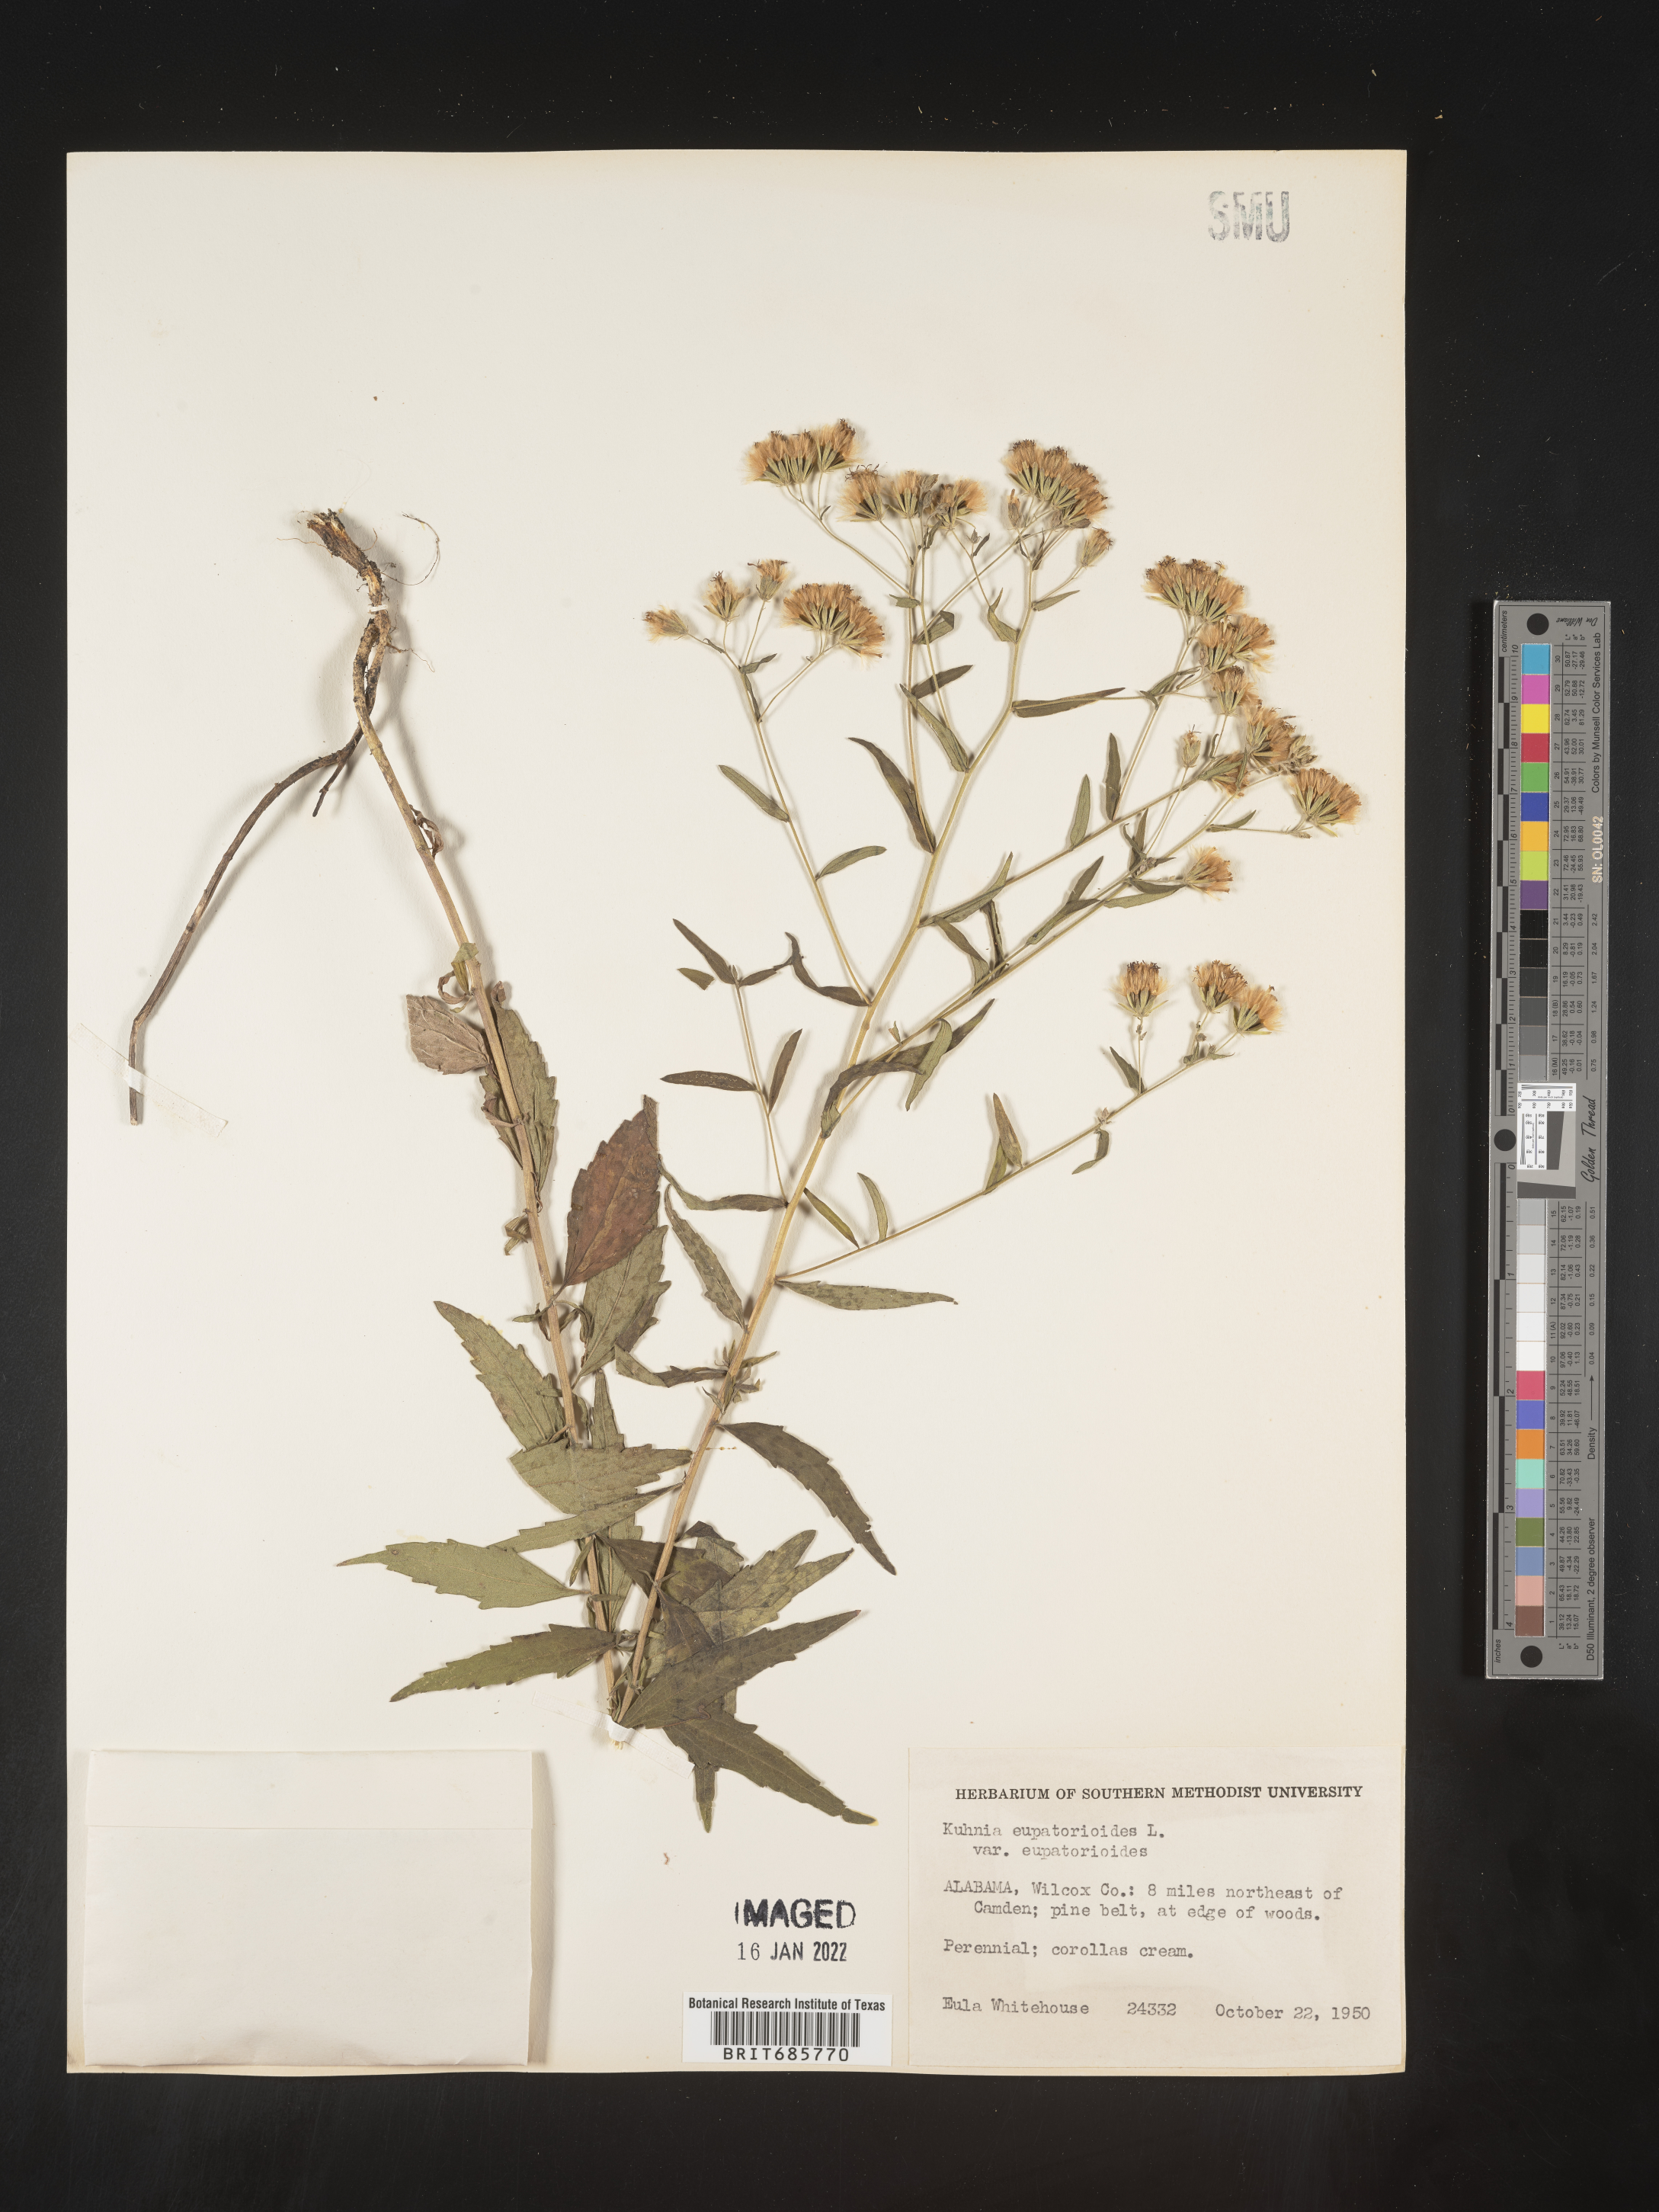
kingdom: Plantae
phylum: Tracheophyta
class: Magnoliopsida
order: Asterales
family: Asteraceae
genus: Brickellia
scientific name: Brickellia eupatorioides
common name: False boneset
